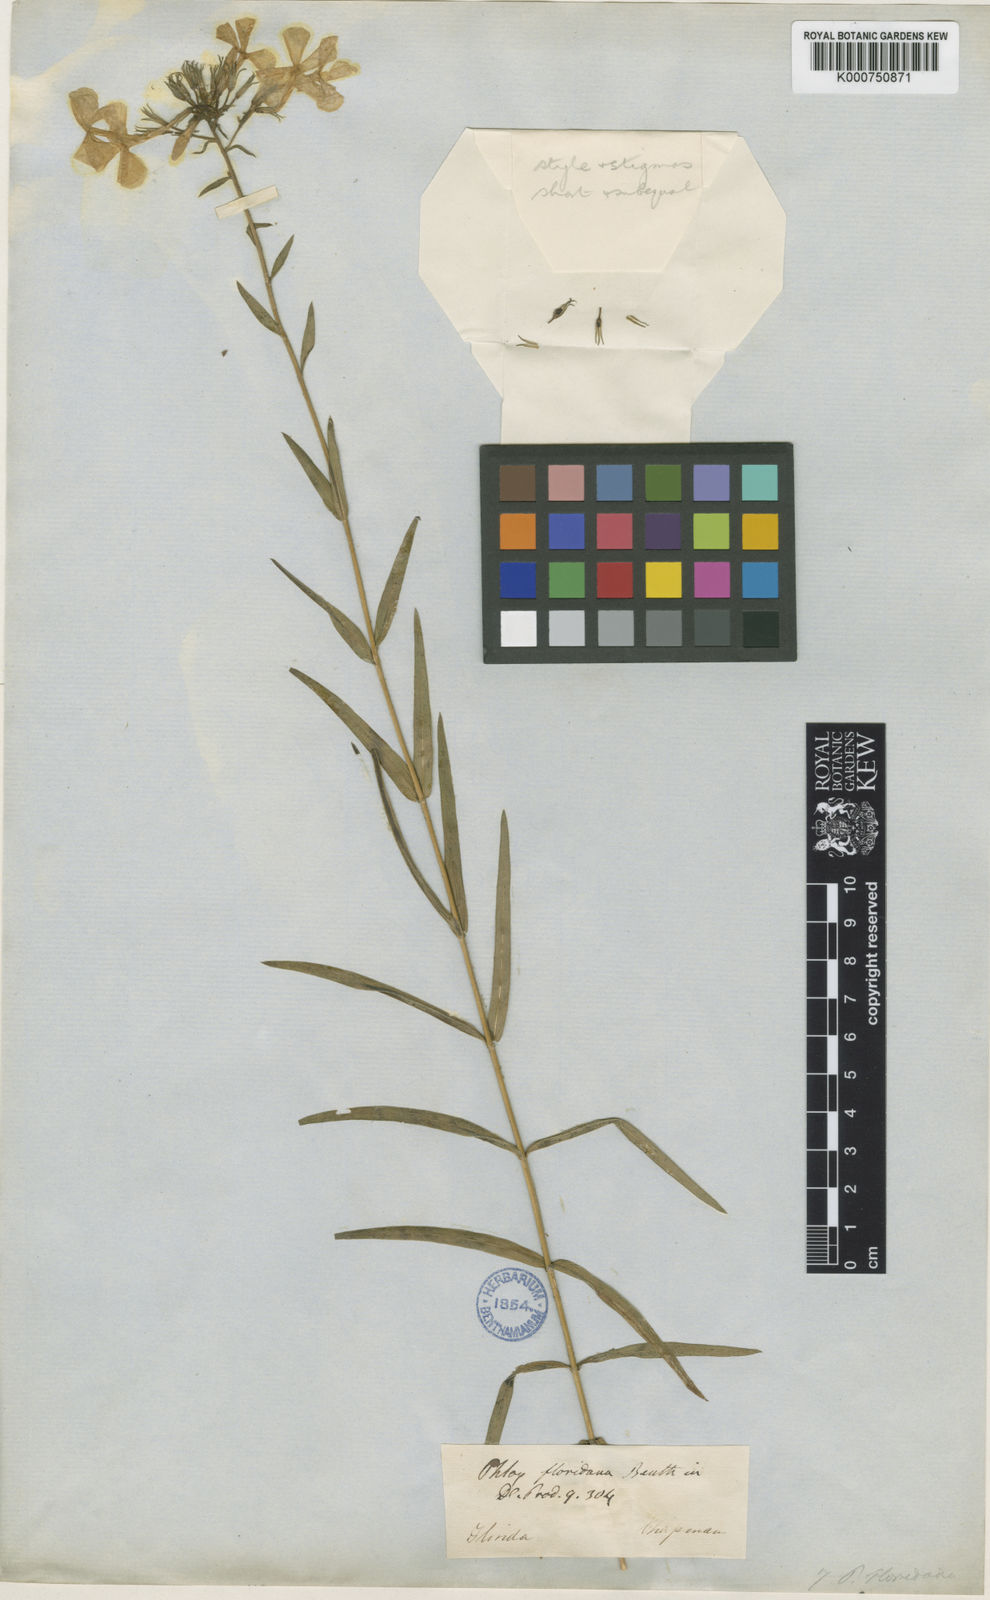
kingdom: Plantae
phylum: Tracheophyta
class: Magnoliopsida
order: Ericales
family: Polemoniaceae
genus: Phlox
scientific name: Phlox floridana
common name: Florida phlox
